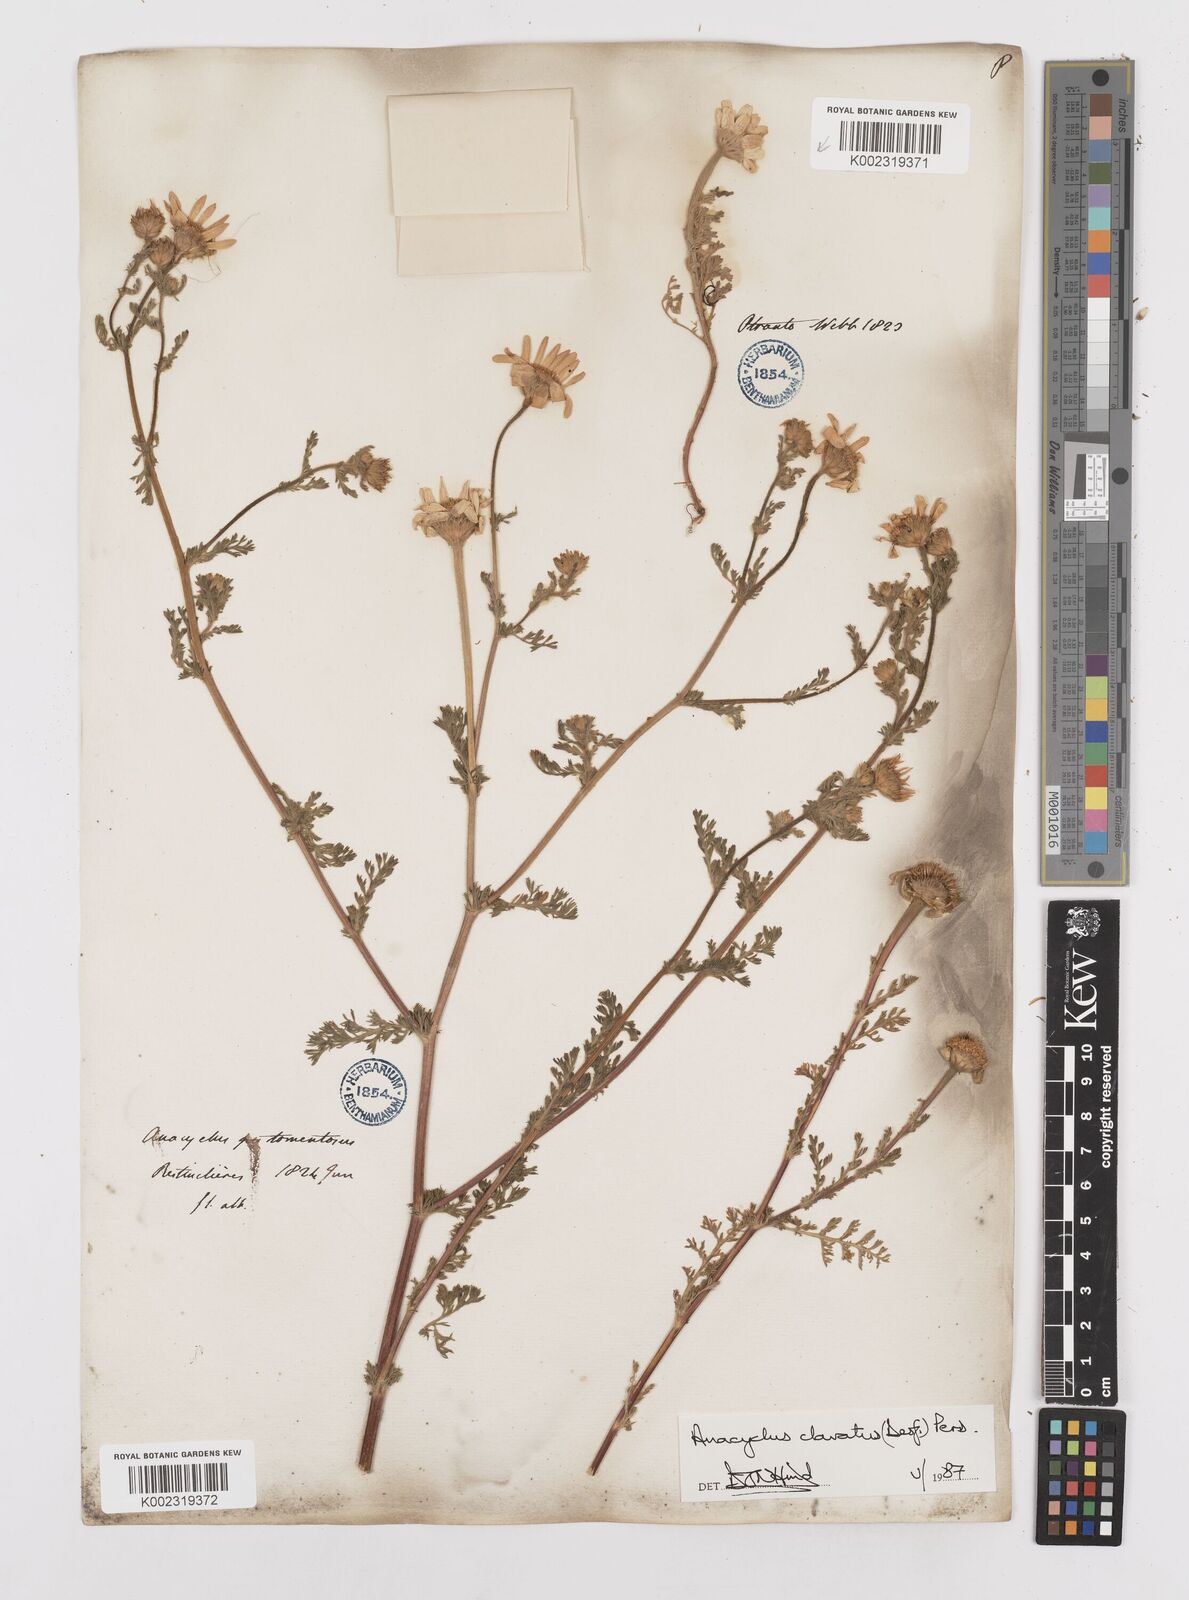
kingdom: Plantae
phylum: Tracheophyta
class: Magnoliopsida
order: Asterales
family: Asteraceae
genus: Anacyclus
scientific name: Anacyclus clavatus
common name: Whitebuttons
